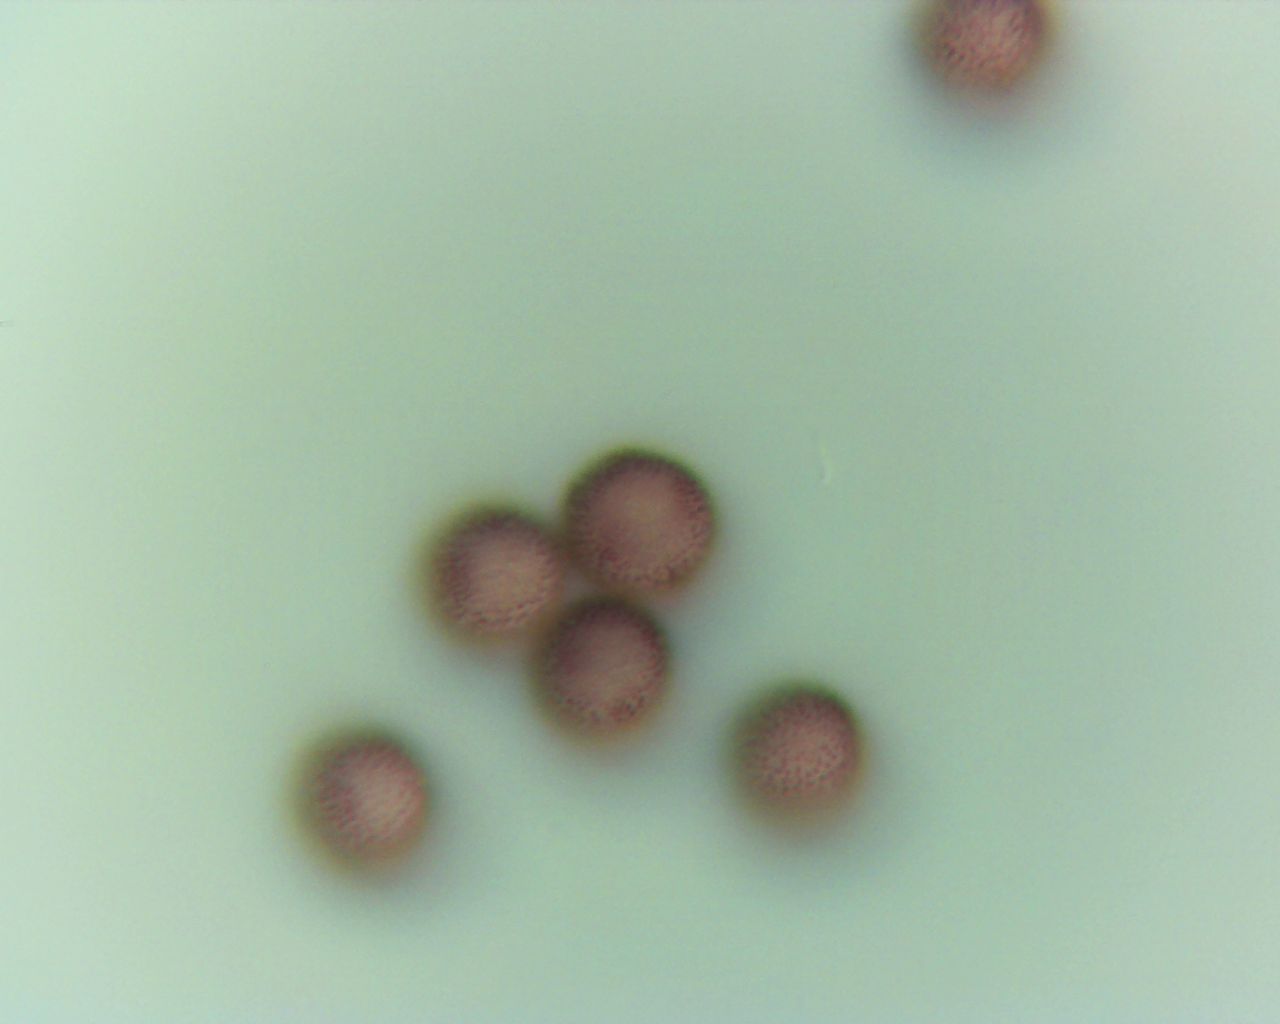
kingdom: Protozoa
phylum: Mycetozoa
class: Myxomycetes
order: Physarales
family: Physaraceae
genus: Physarum
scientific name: Physarum
